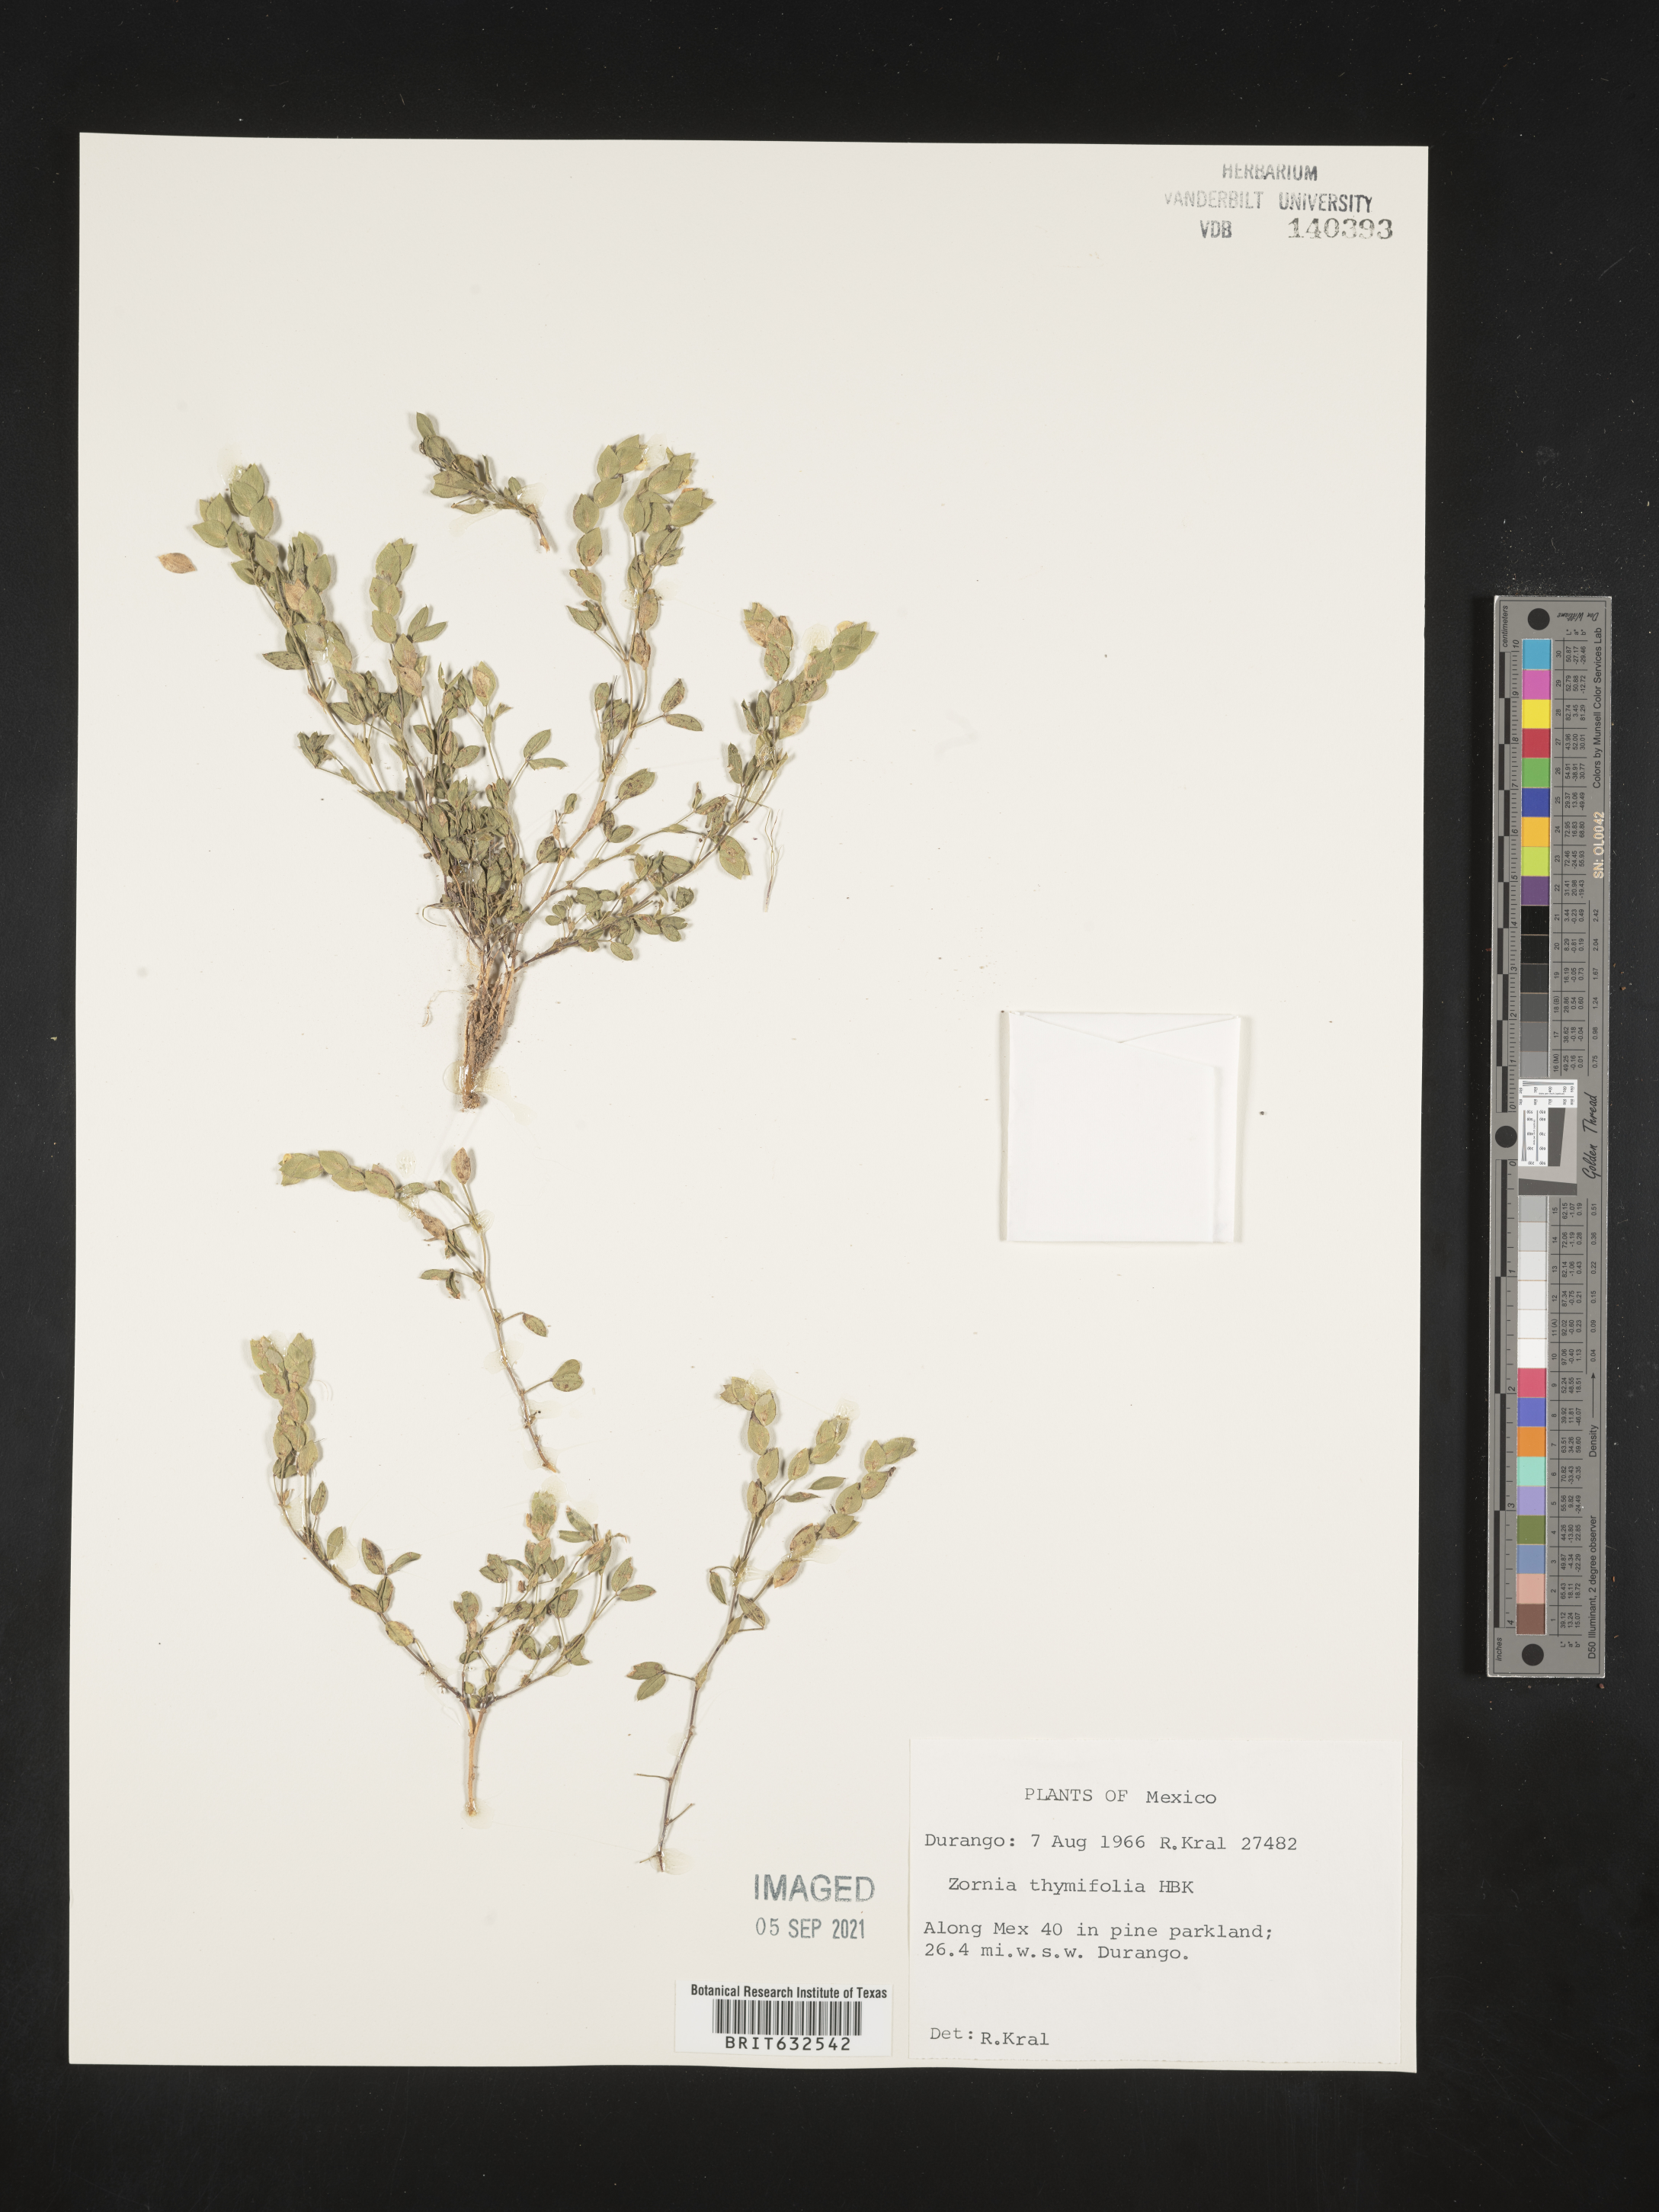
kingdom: Plantae
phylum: Tracheophyta
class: Magnoliopsida
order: Fabales
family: Fabaceae
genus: Zornia
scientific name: Zornia
